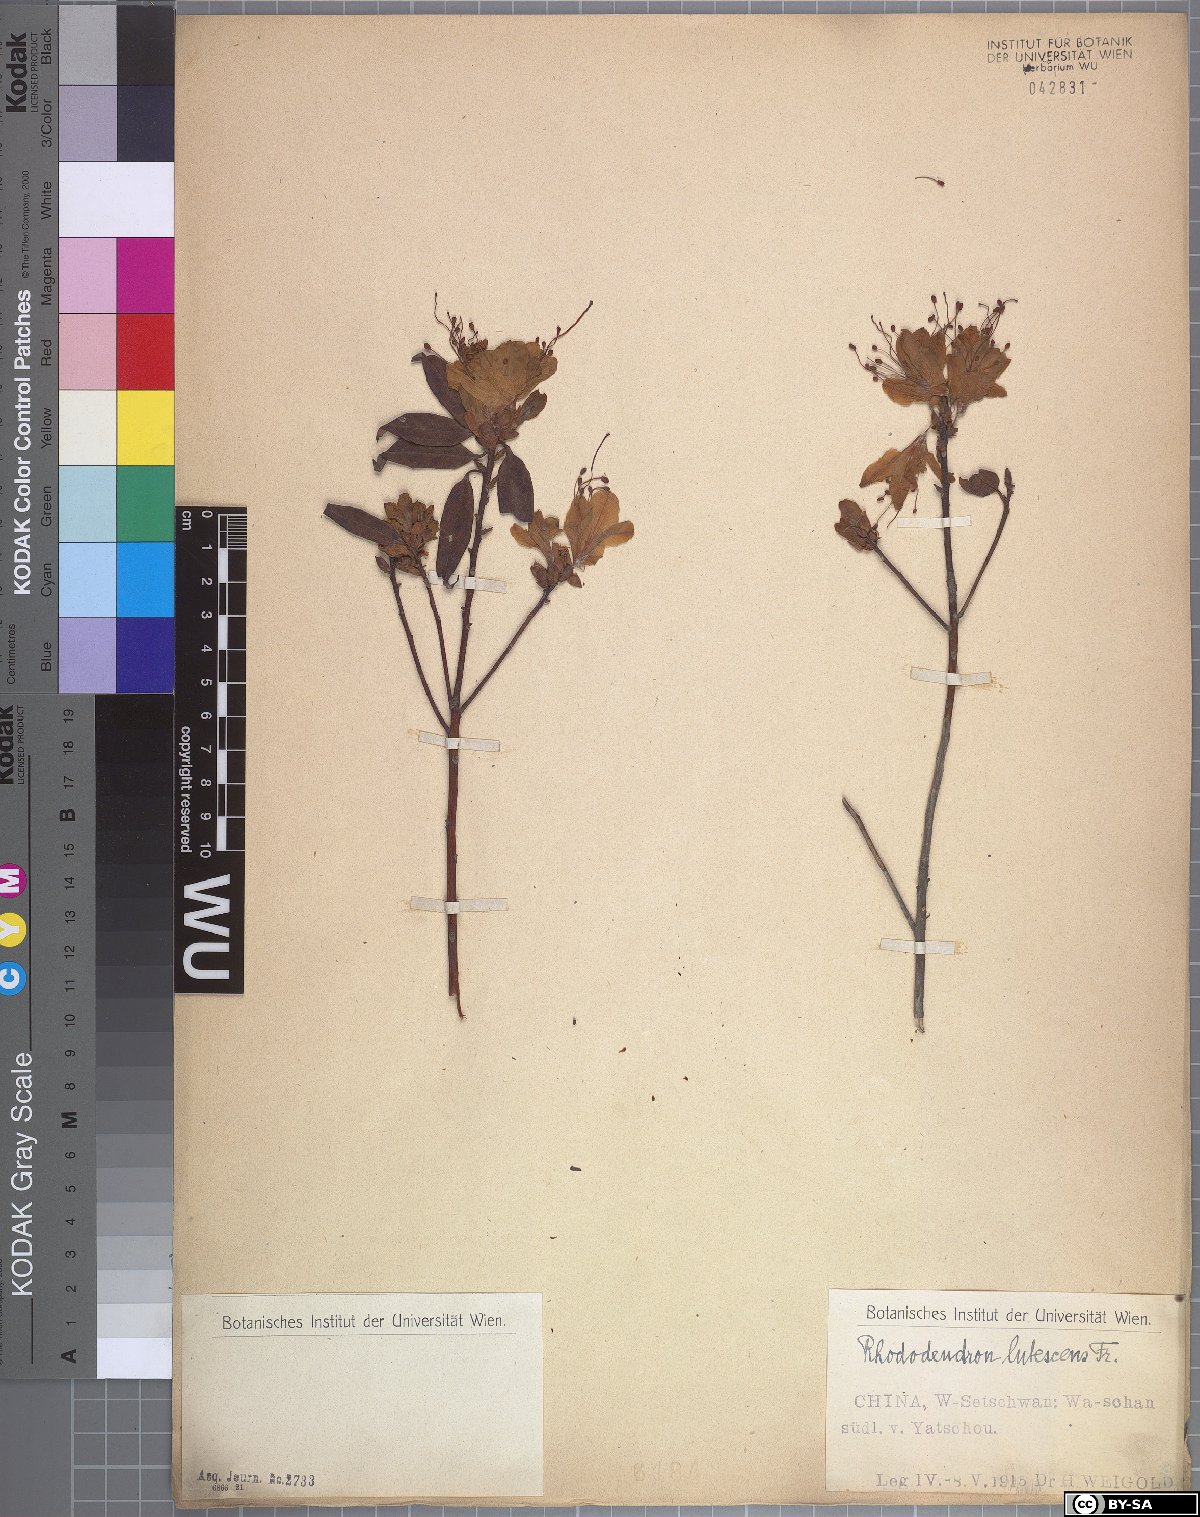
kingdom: Plantae
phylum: Tracheophyta
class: Magnoliopsida
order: Ericales
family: Ericaceae
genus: Rhododendron
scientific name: Rhododendron lutescens
